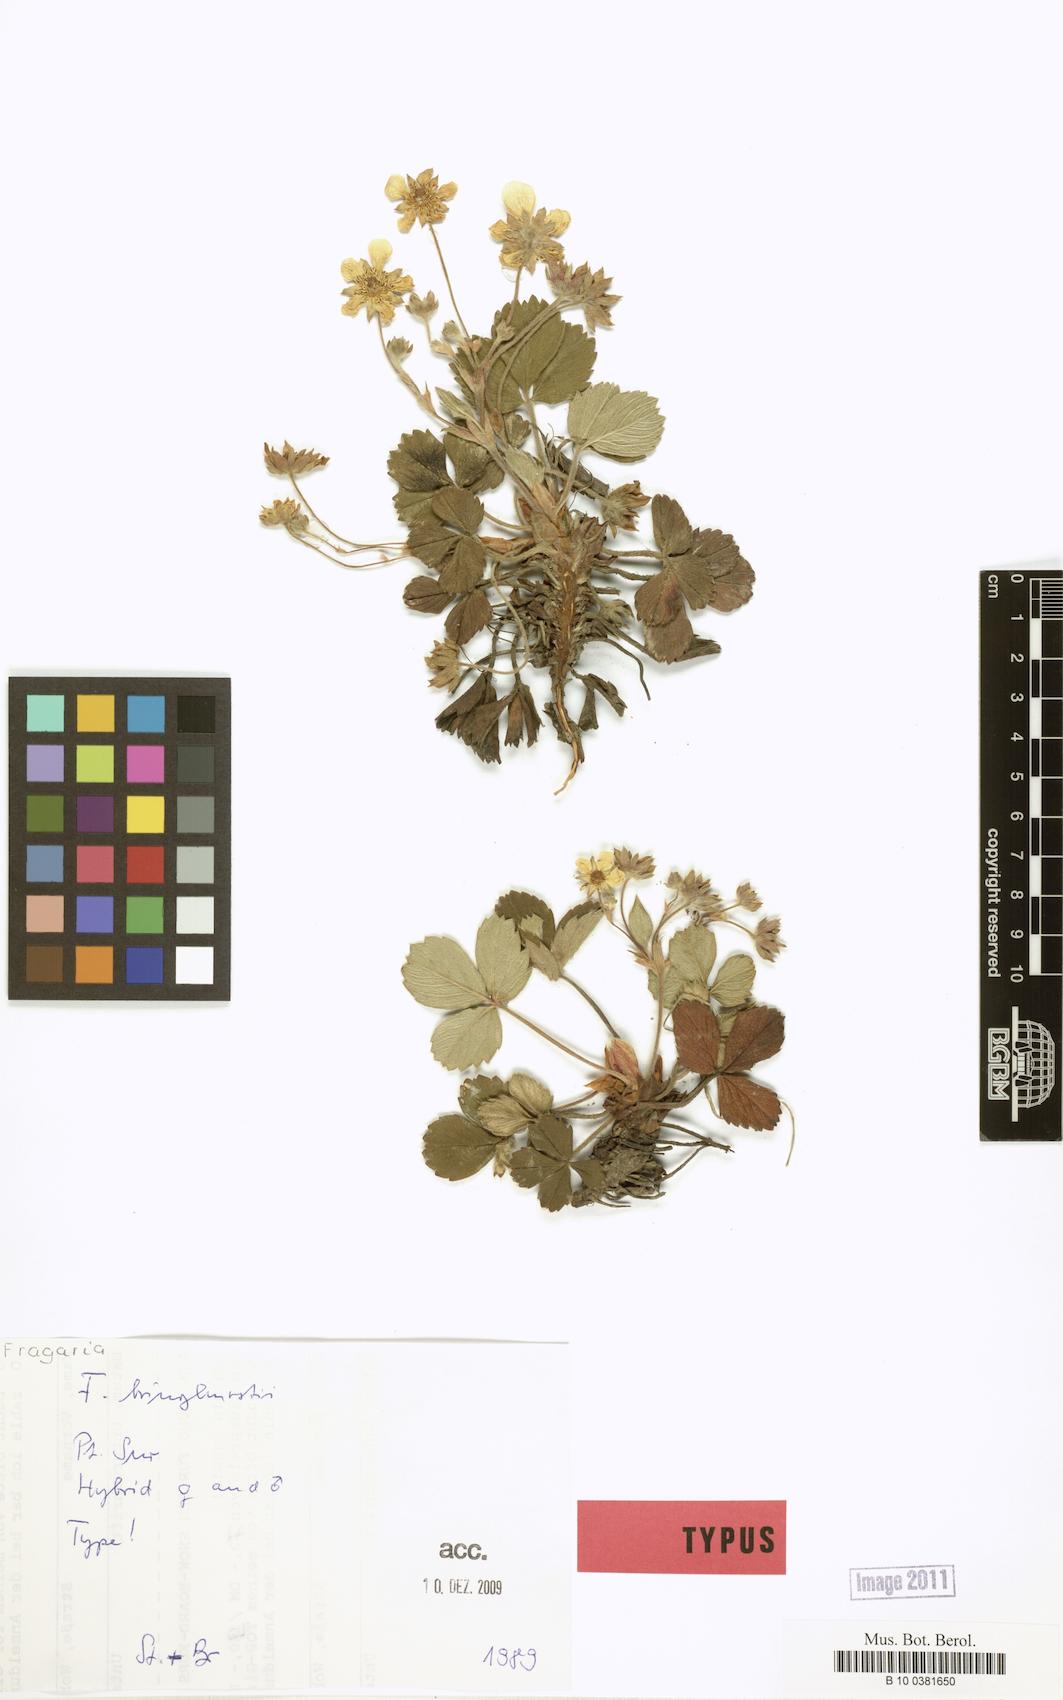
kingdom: Plantae
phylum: Tracheophyta
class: Magnoliopsida
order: Rosales
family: Rosaceae
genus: Fragaria
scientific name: Fragaria bringhurstii
